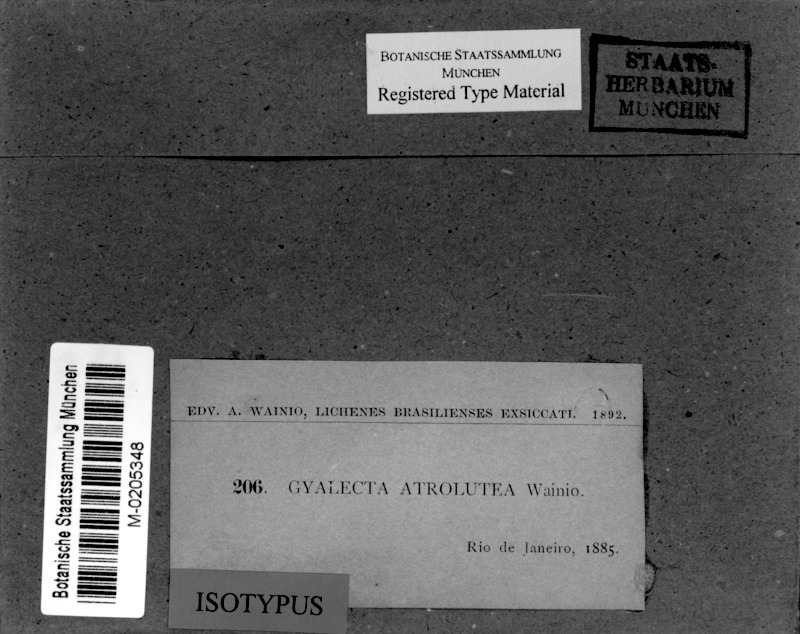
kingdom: Fungi
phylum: Ascomycota
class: Lecanoromycetes
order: Ostropales
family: Coenogoniaceae
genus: Coenogonium
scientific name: Coenogonium atroluteum
